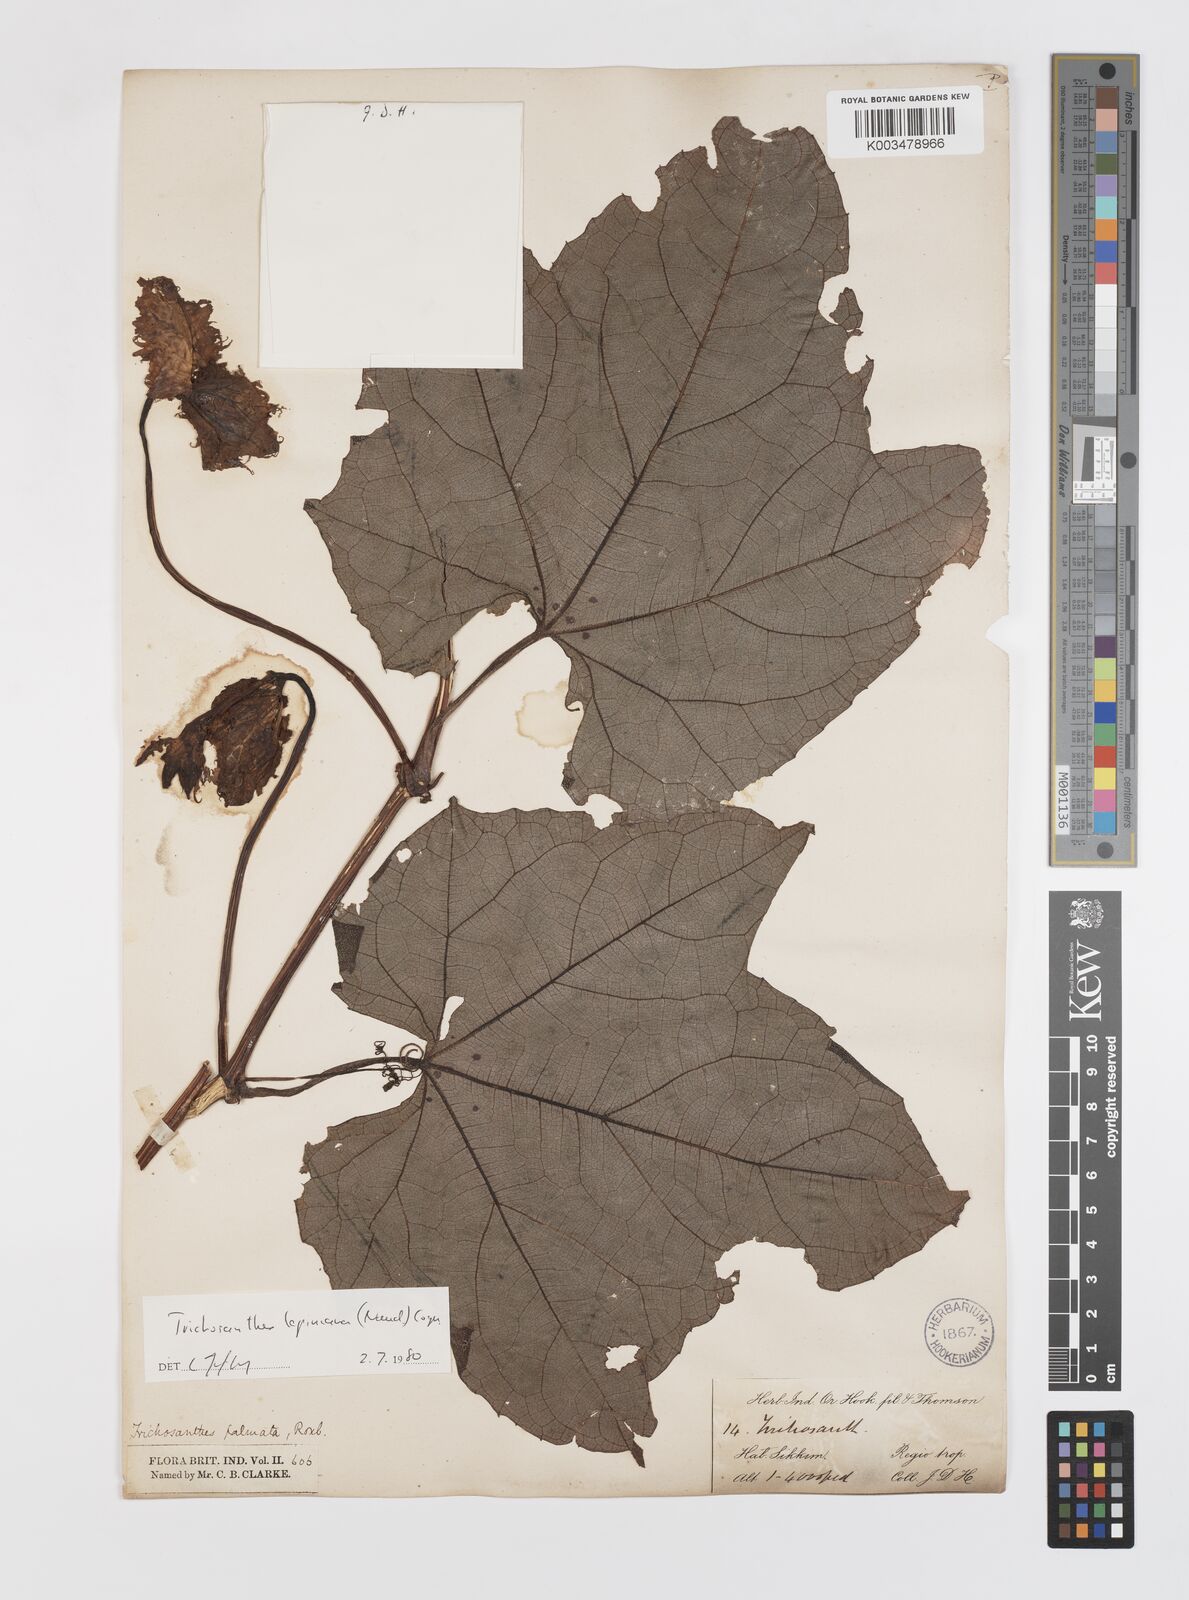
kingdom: Plantae
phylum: Tracheophyta
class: Magnoliopsida
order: Cucurbitales
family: Cucurbitaceae
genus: Trichosanthes
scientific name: Trichosanthes lepiniana
